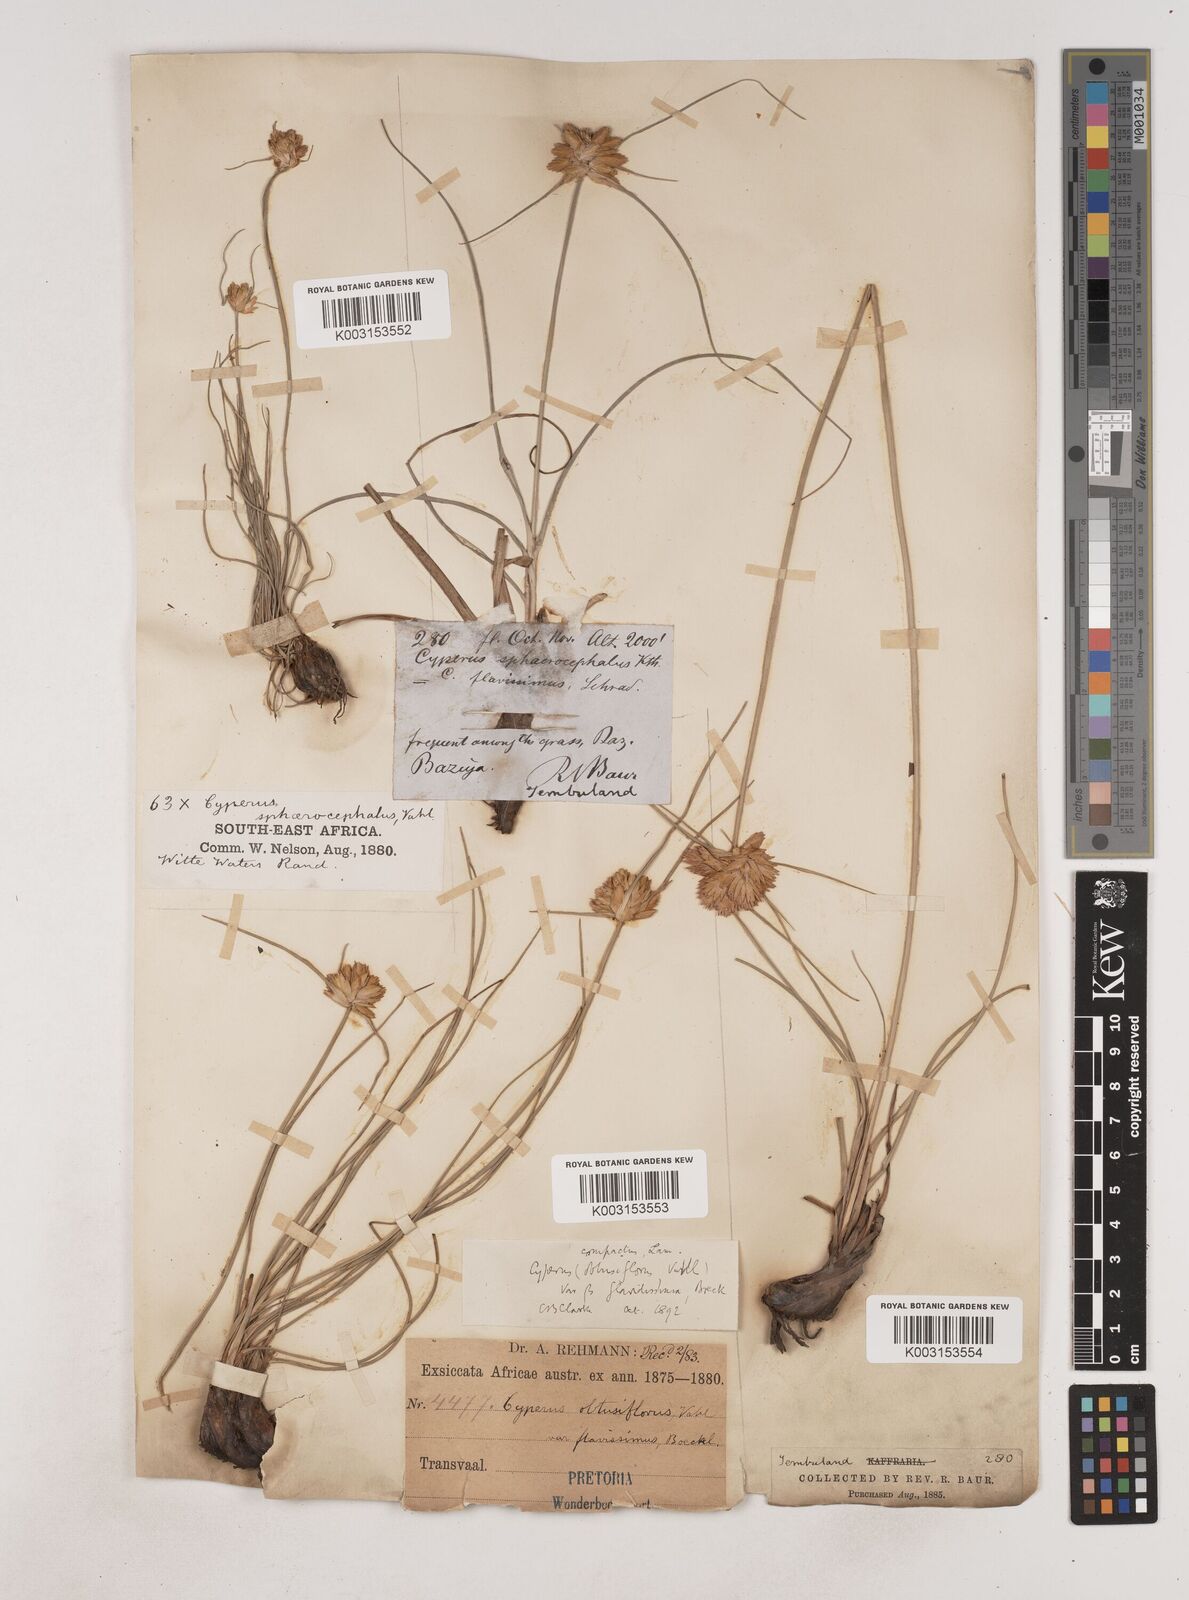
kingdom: Plantae
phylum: Tracheophyta
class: Liliopsida
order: Poales
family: Cyperaceae
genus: Cyperus
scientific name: Cyperus niveus
